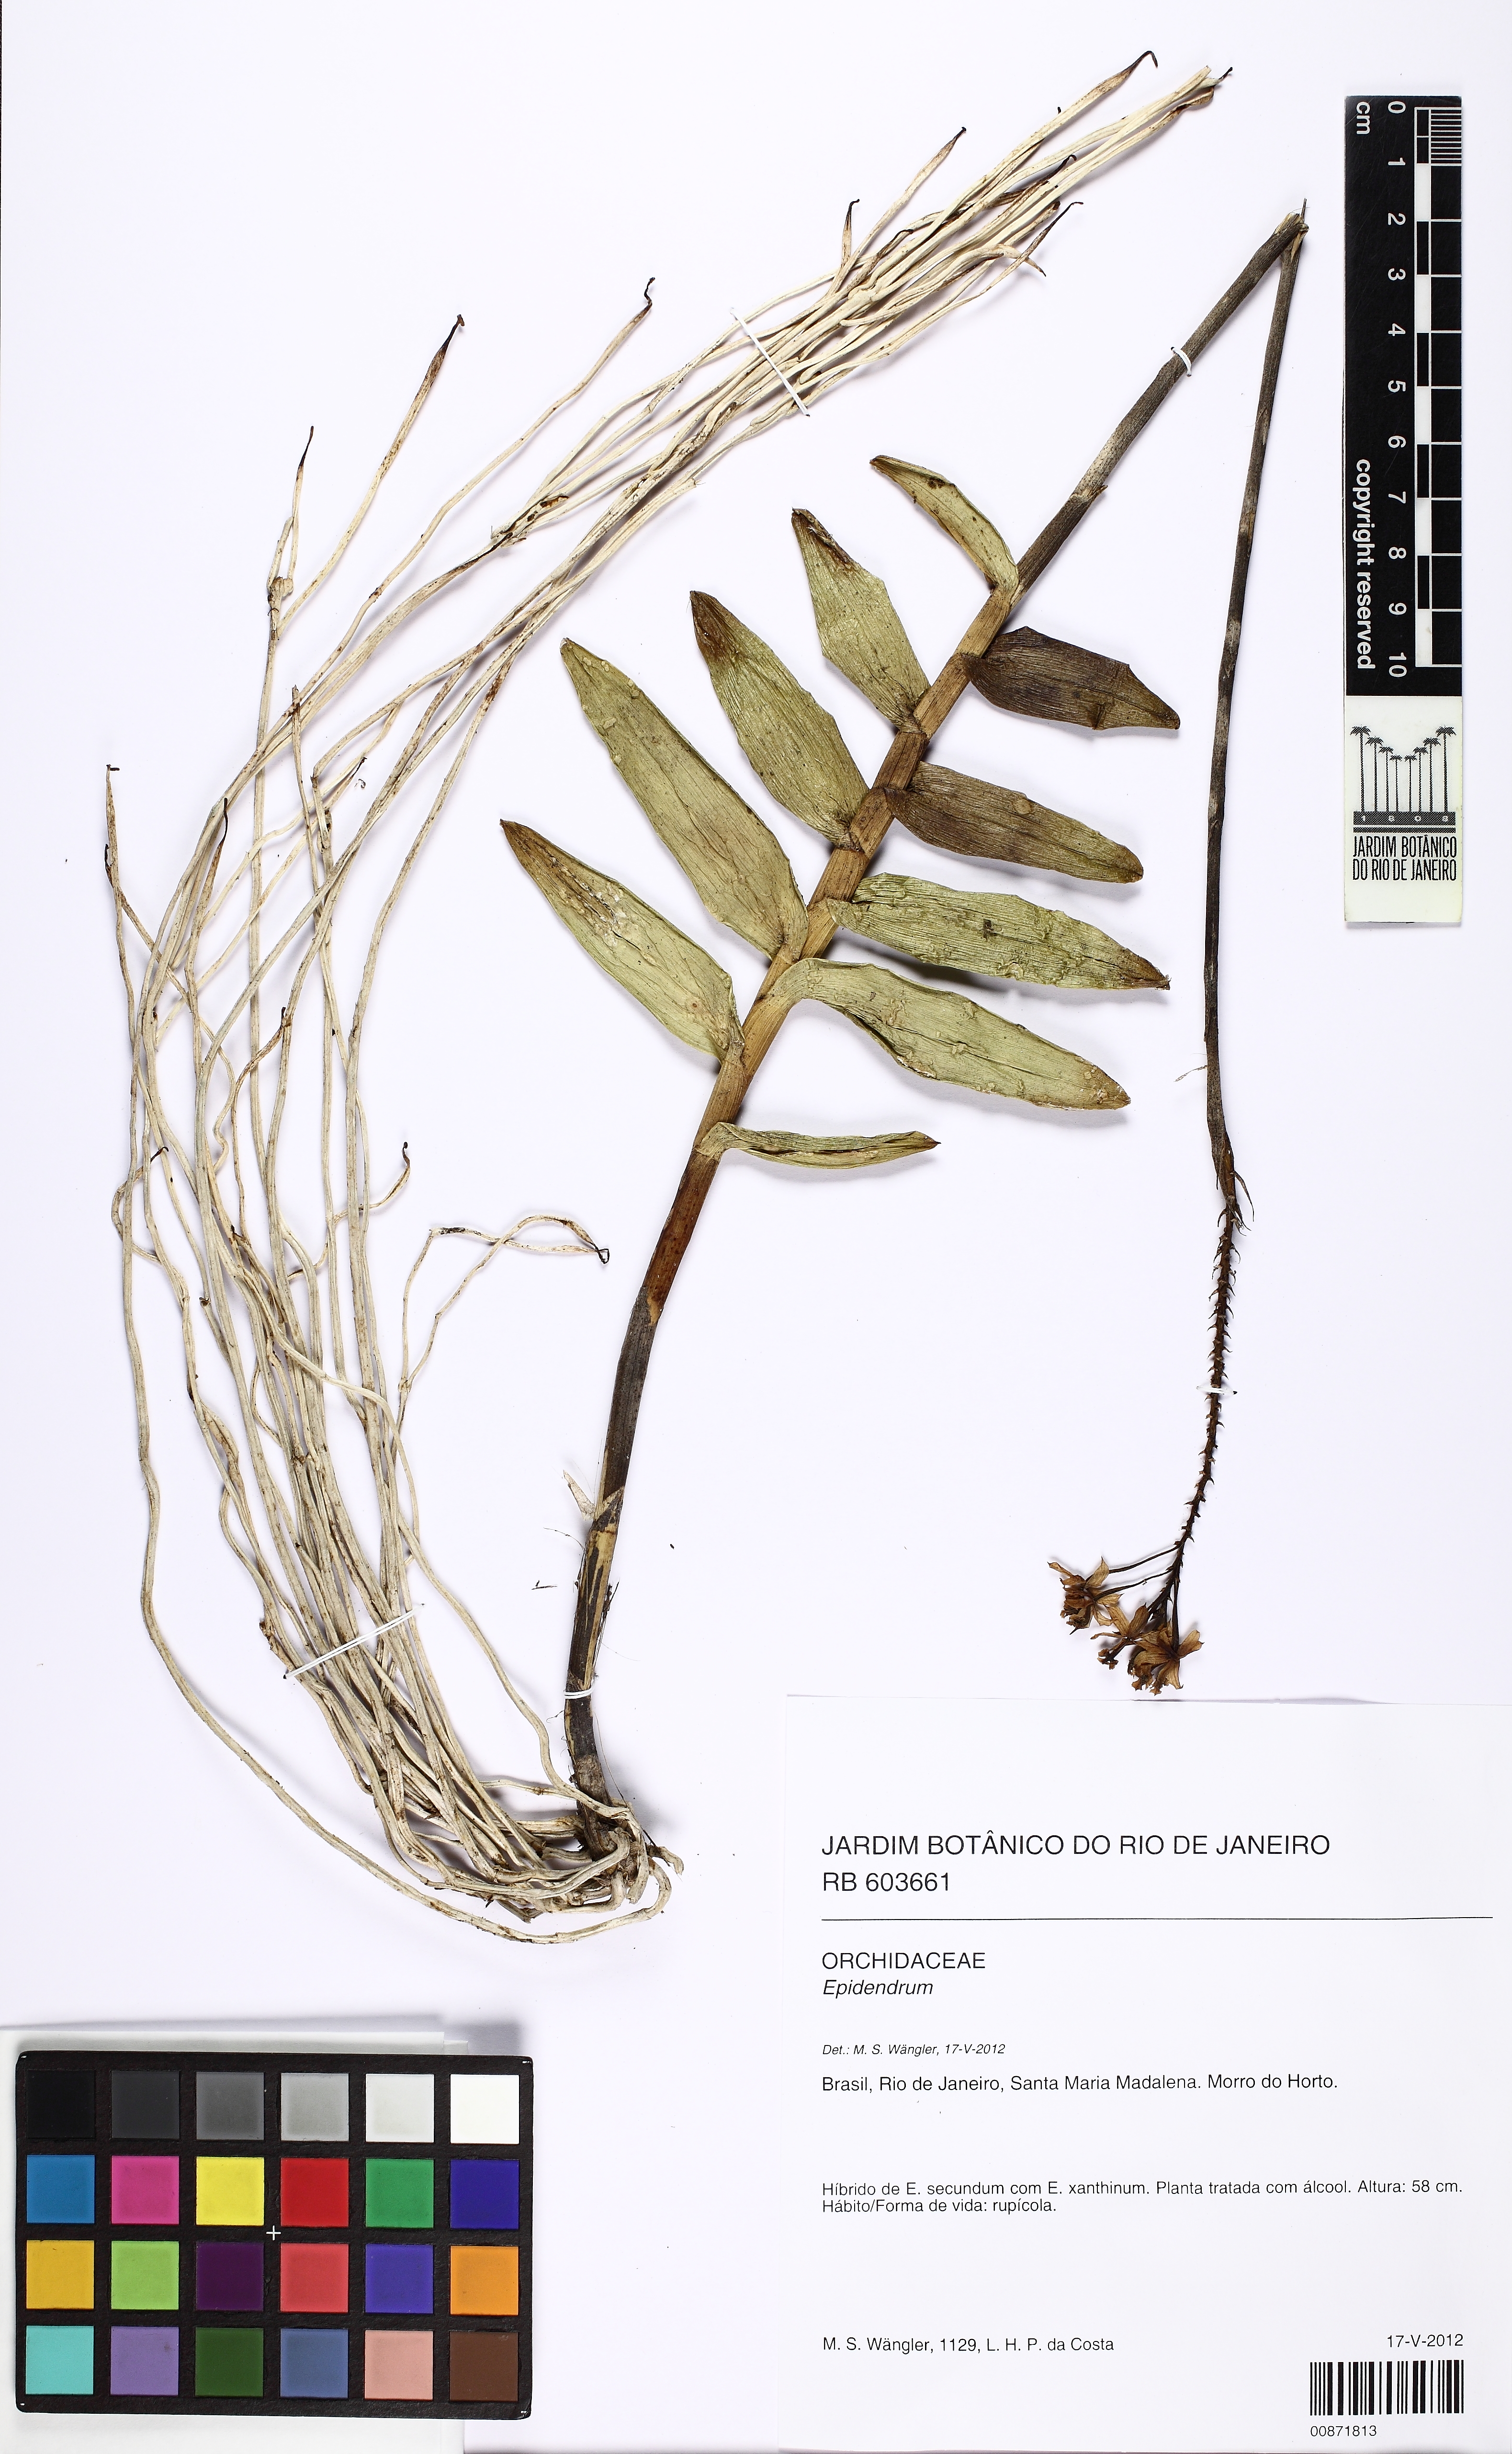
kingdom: Plantae
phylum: Tracheophyta
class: Liliopsida
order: Asparagales
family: Orchidaceae
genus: Epidendrum
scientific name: Epidendrum secundum
